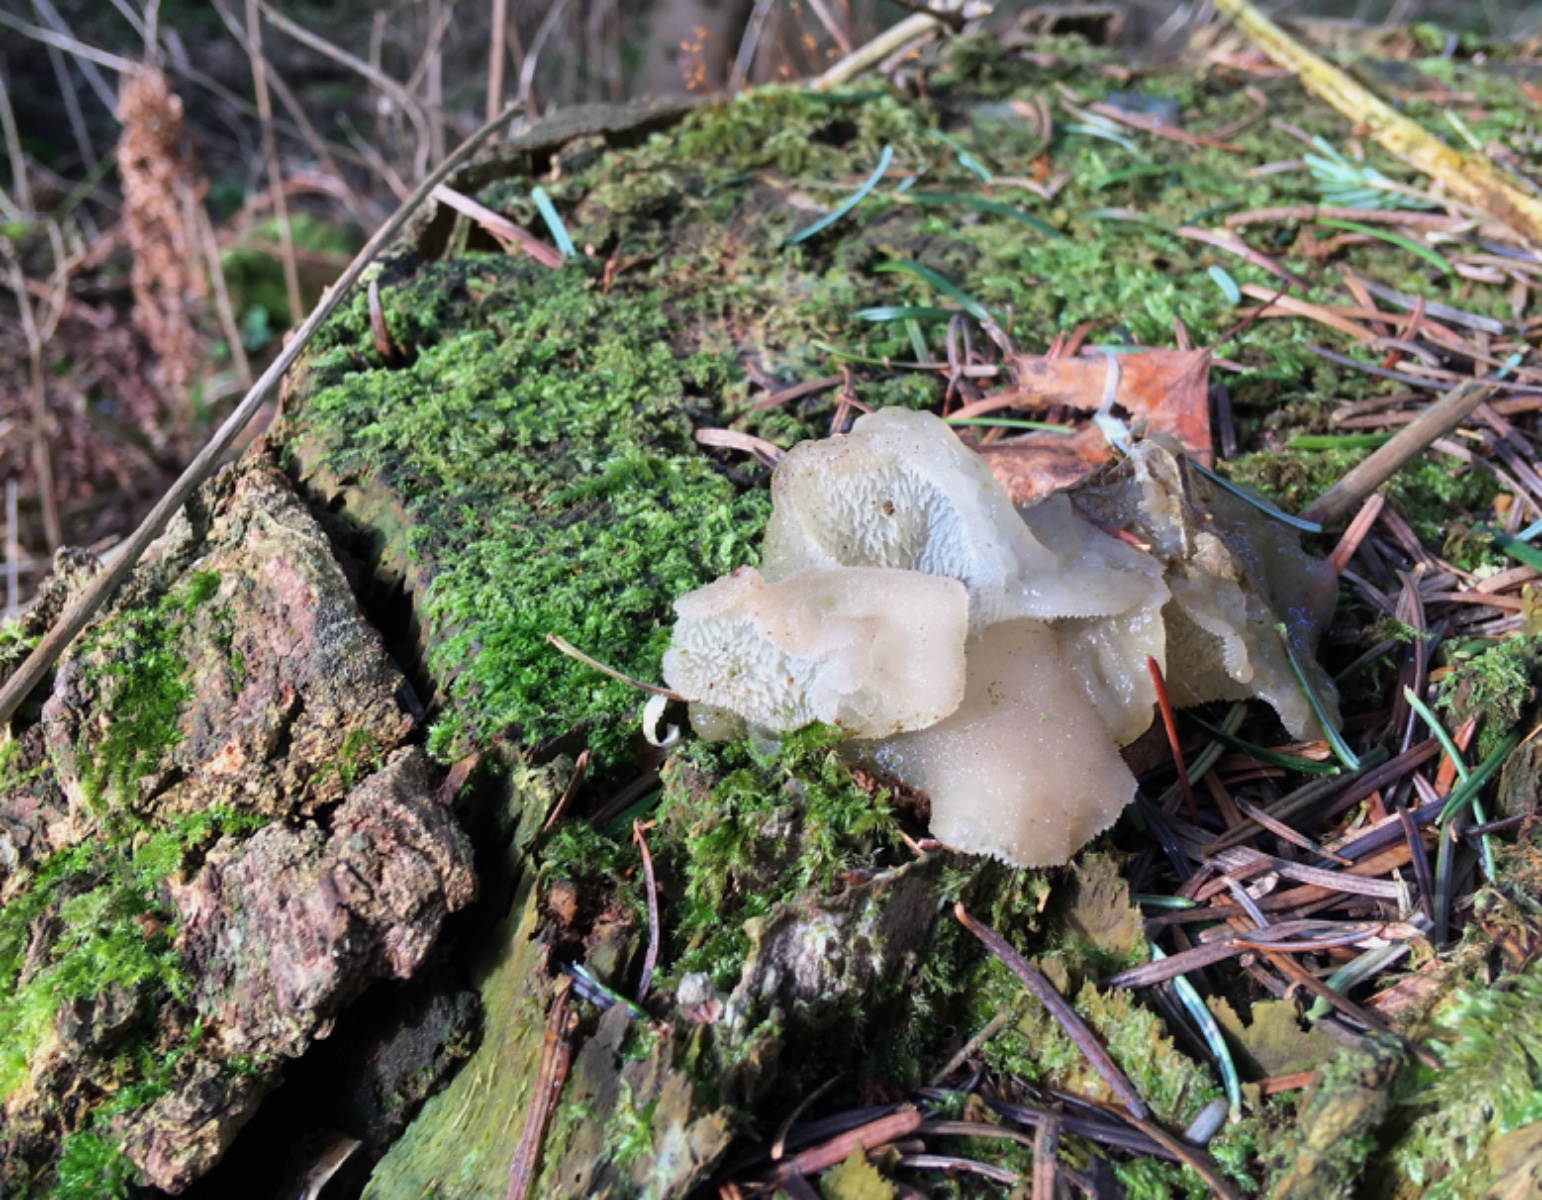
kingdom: Fungi
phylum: Basidiomycota
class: Agaricomycetes
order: Auriculariales
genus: Pseudohydnum
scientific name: Pseudohydnum gelatinosum
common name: bævretand
